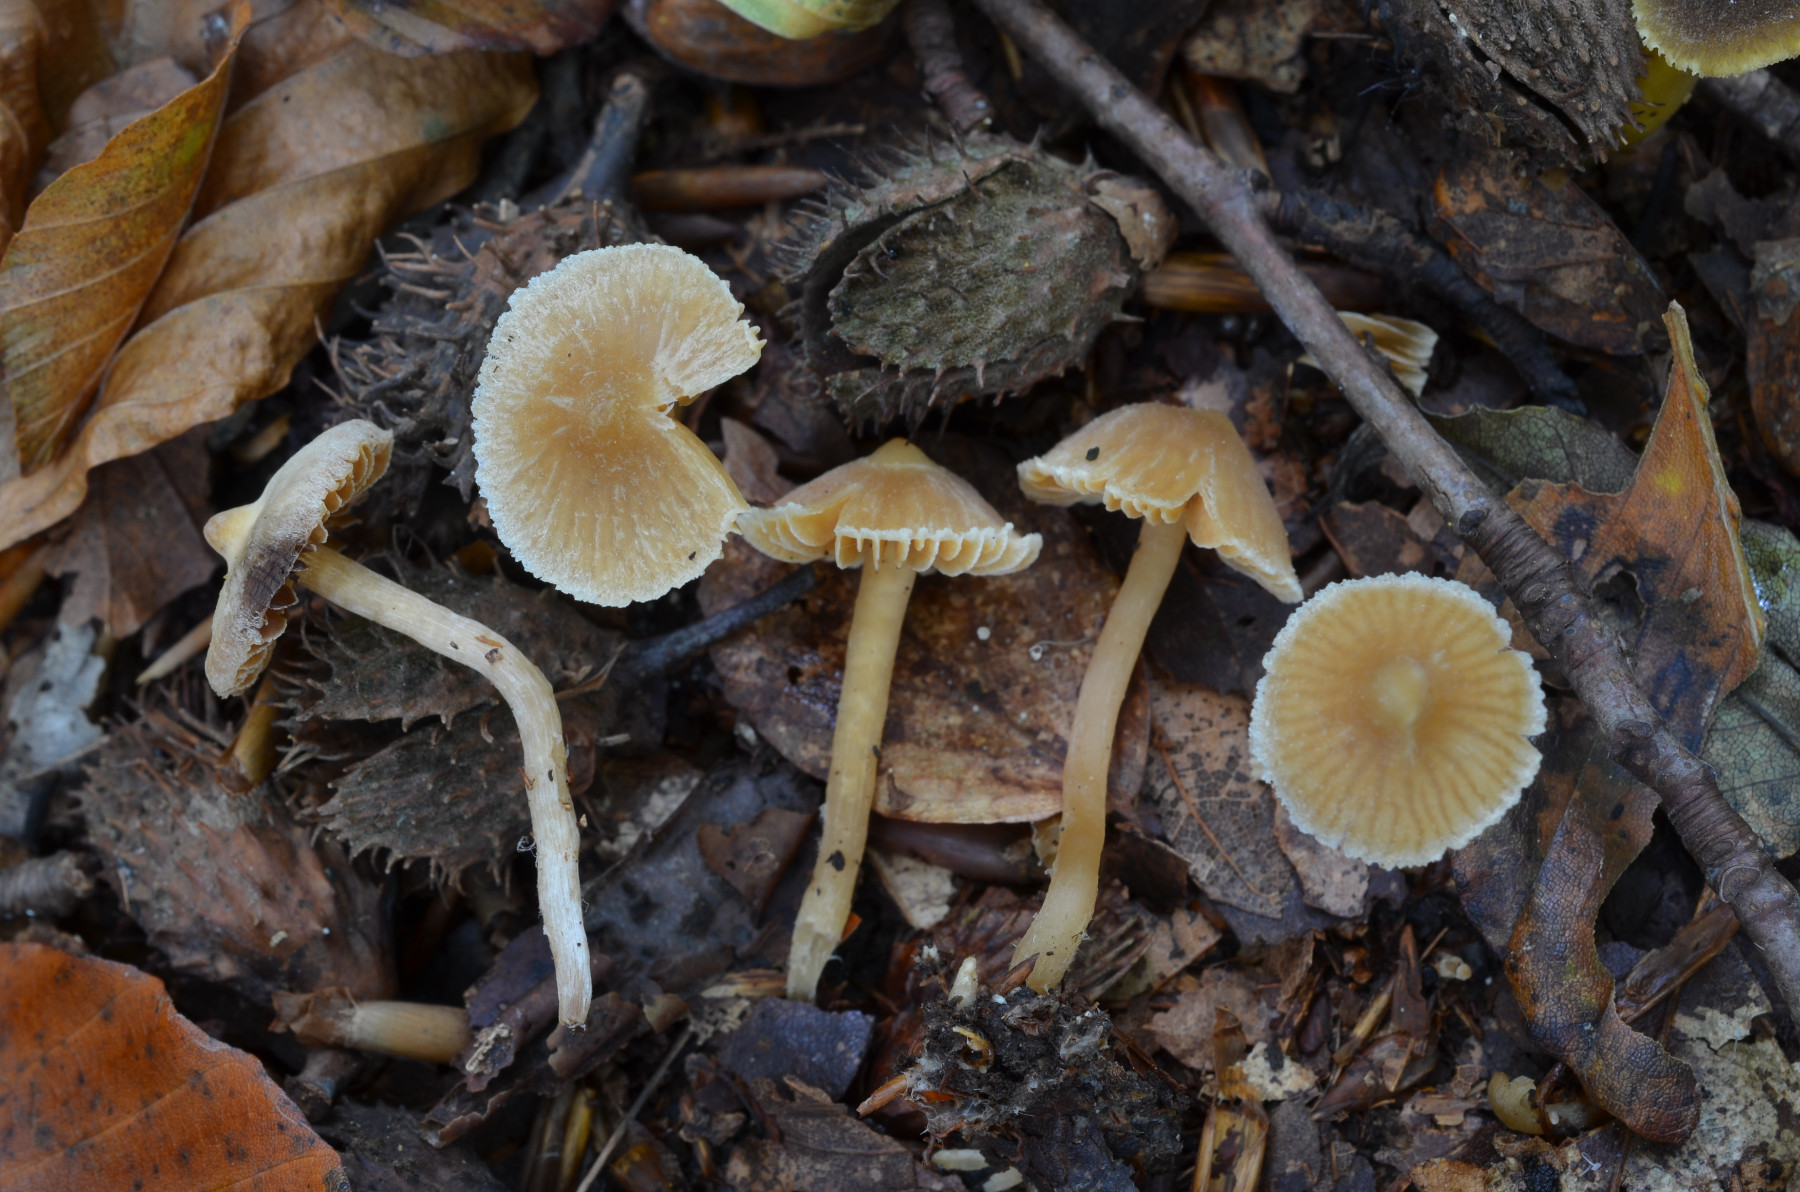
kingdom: Fungi
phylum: Basidiomycota
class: Agaricomycetes
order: Agaricales
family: Cortinariaceae
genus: Cortinarius
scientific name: Cortinarius acutus
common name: spids slørhat
